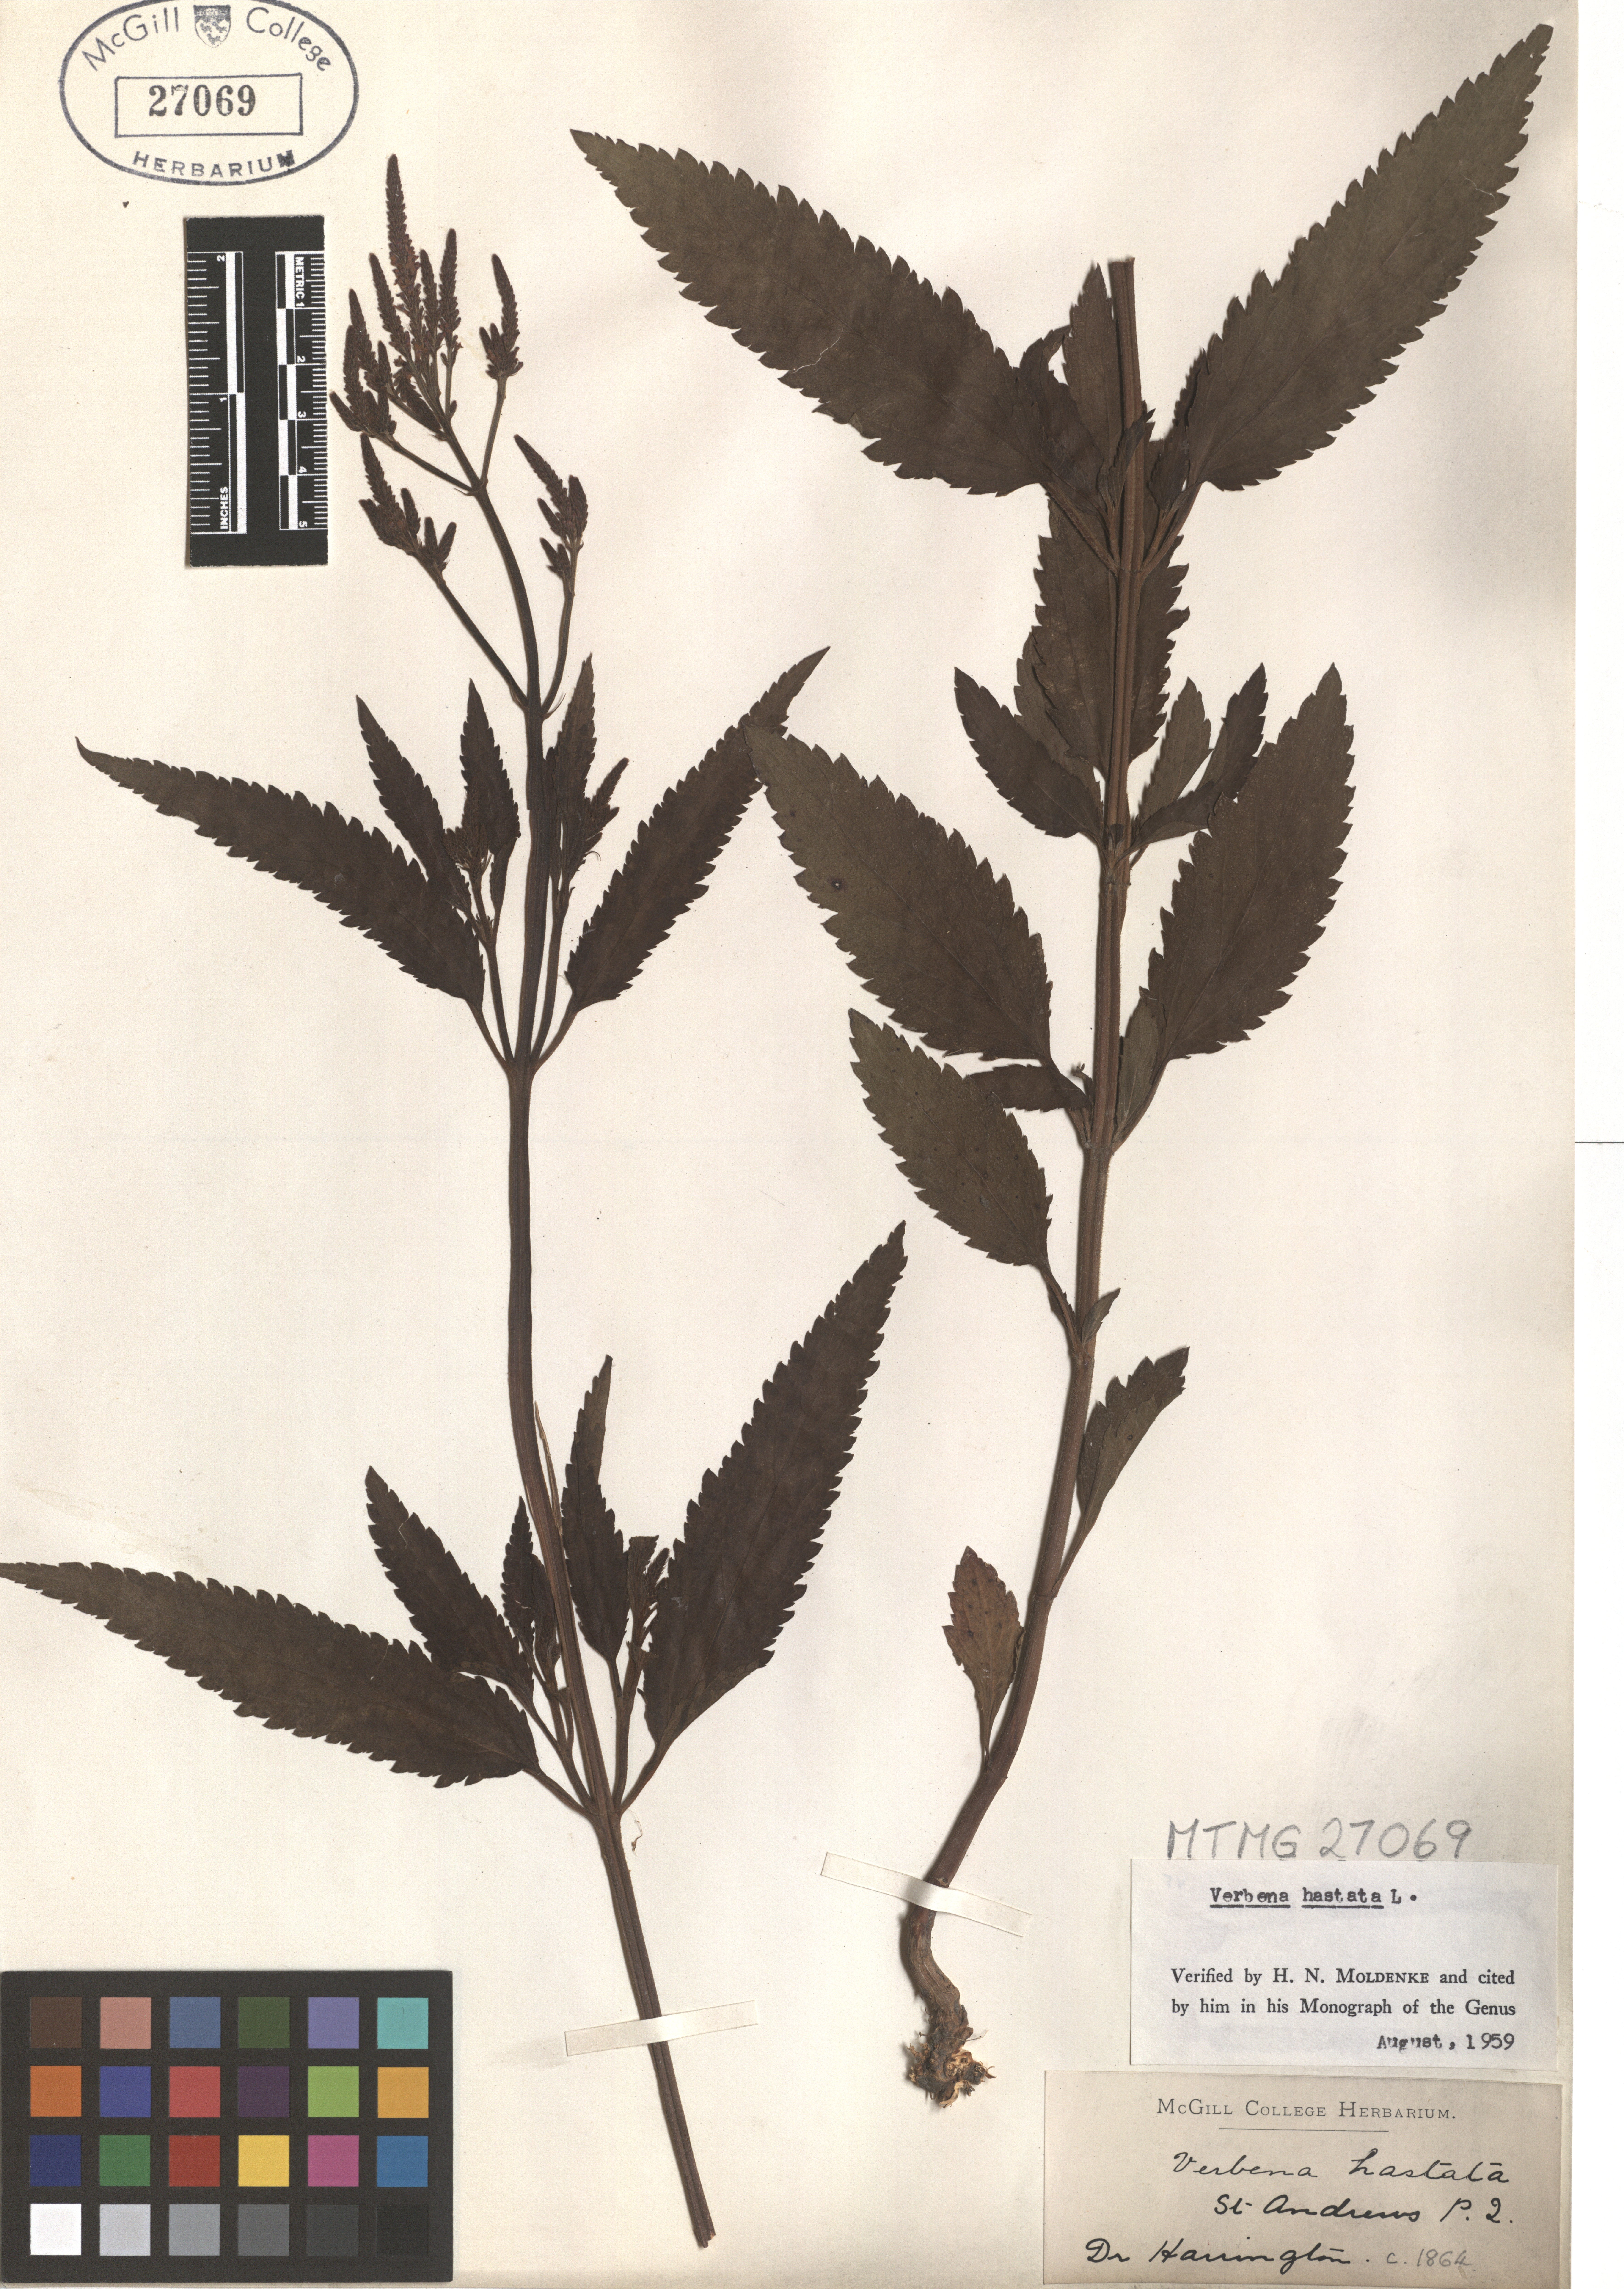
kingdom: Plantae
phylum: Tracheophyta
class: Magnoliopsida
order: Lamiales
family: Verbenaceae
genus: Verbena
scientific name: Verbena hastata
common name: American blue vervain
